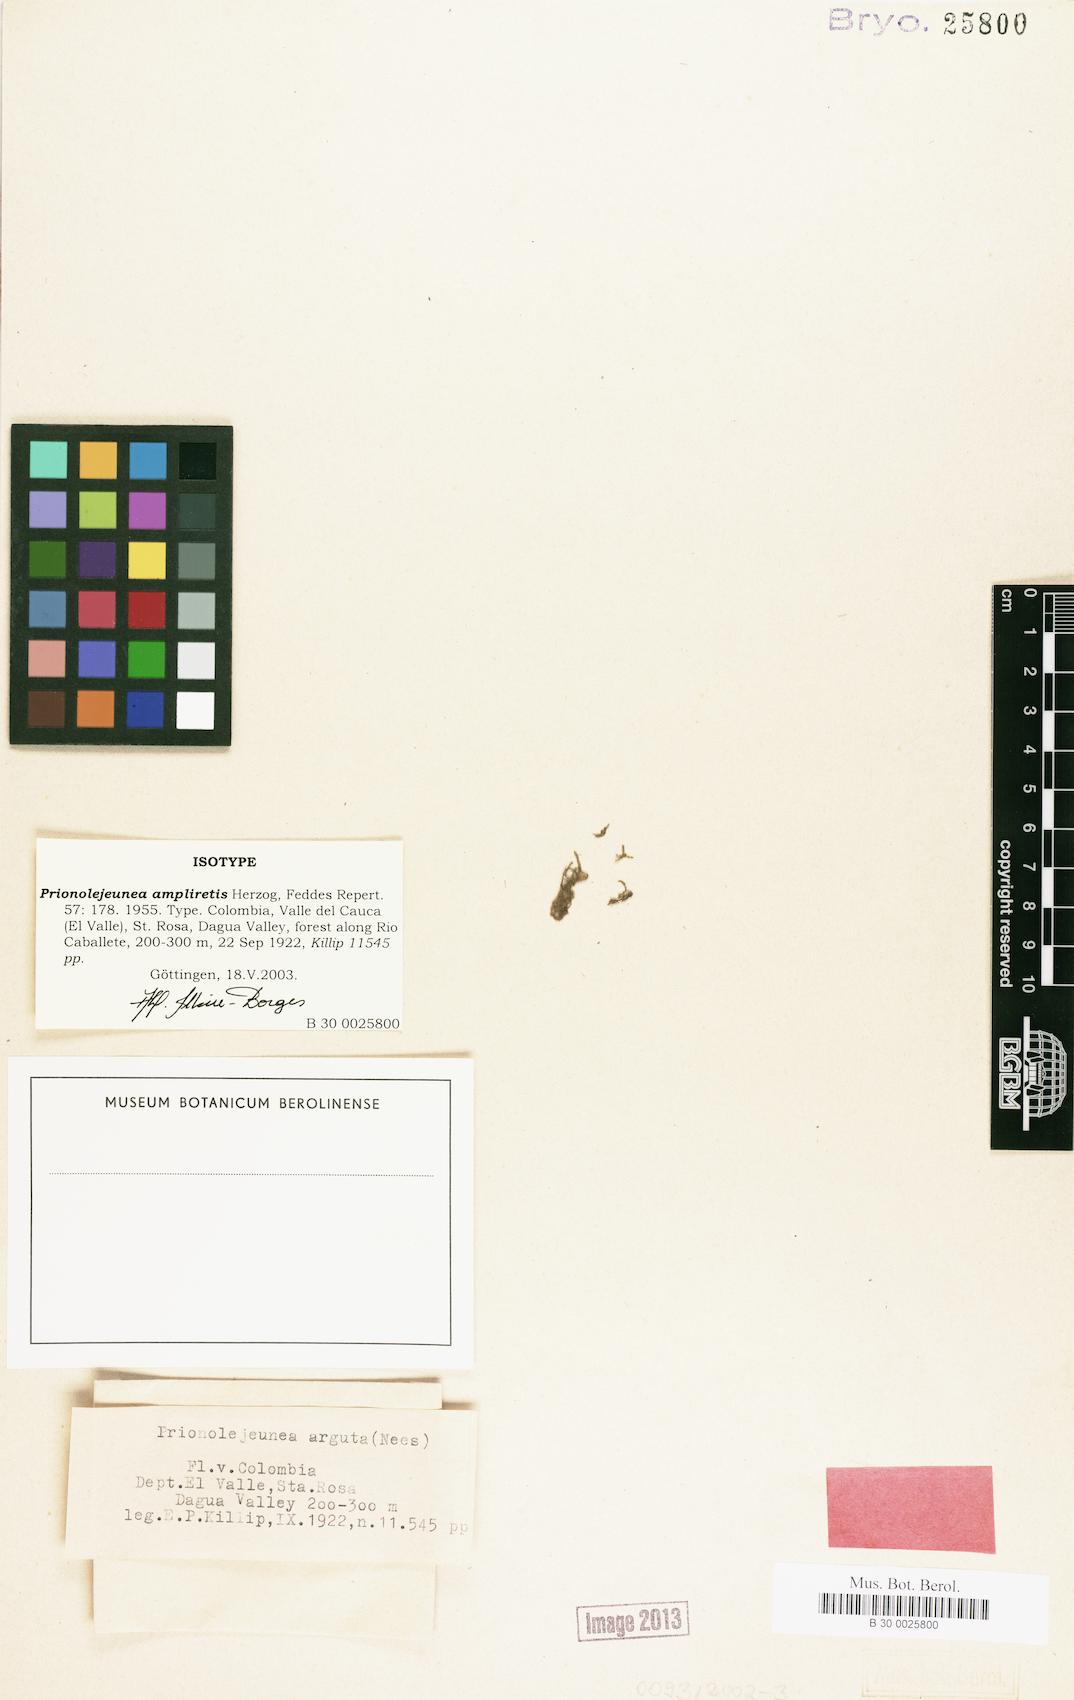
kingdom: Plantae
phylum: Marchantiophyta
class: Jungermanniopsida
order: Porellales
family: Lejeuneaceae
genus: Prionolejeunea
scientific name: Prionolejeunea ampliretis
